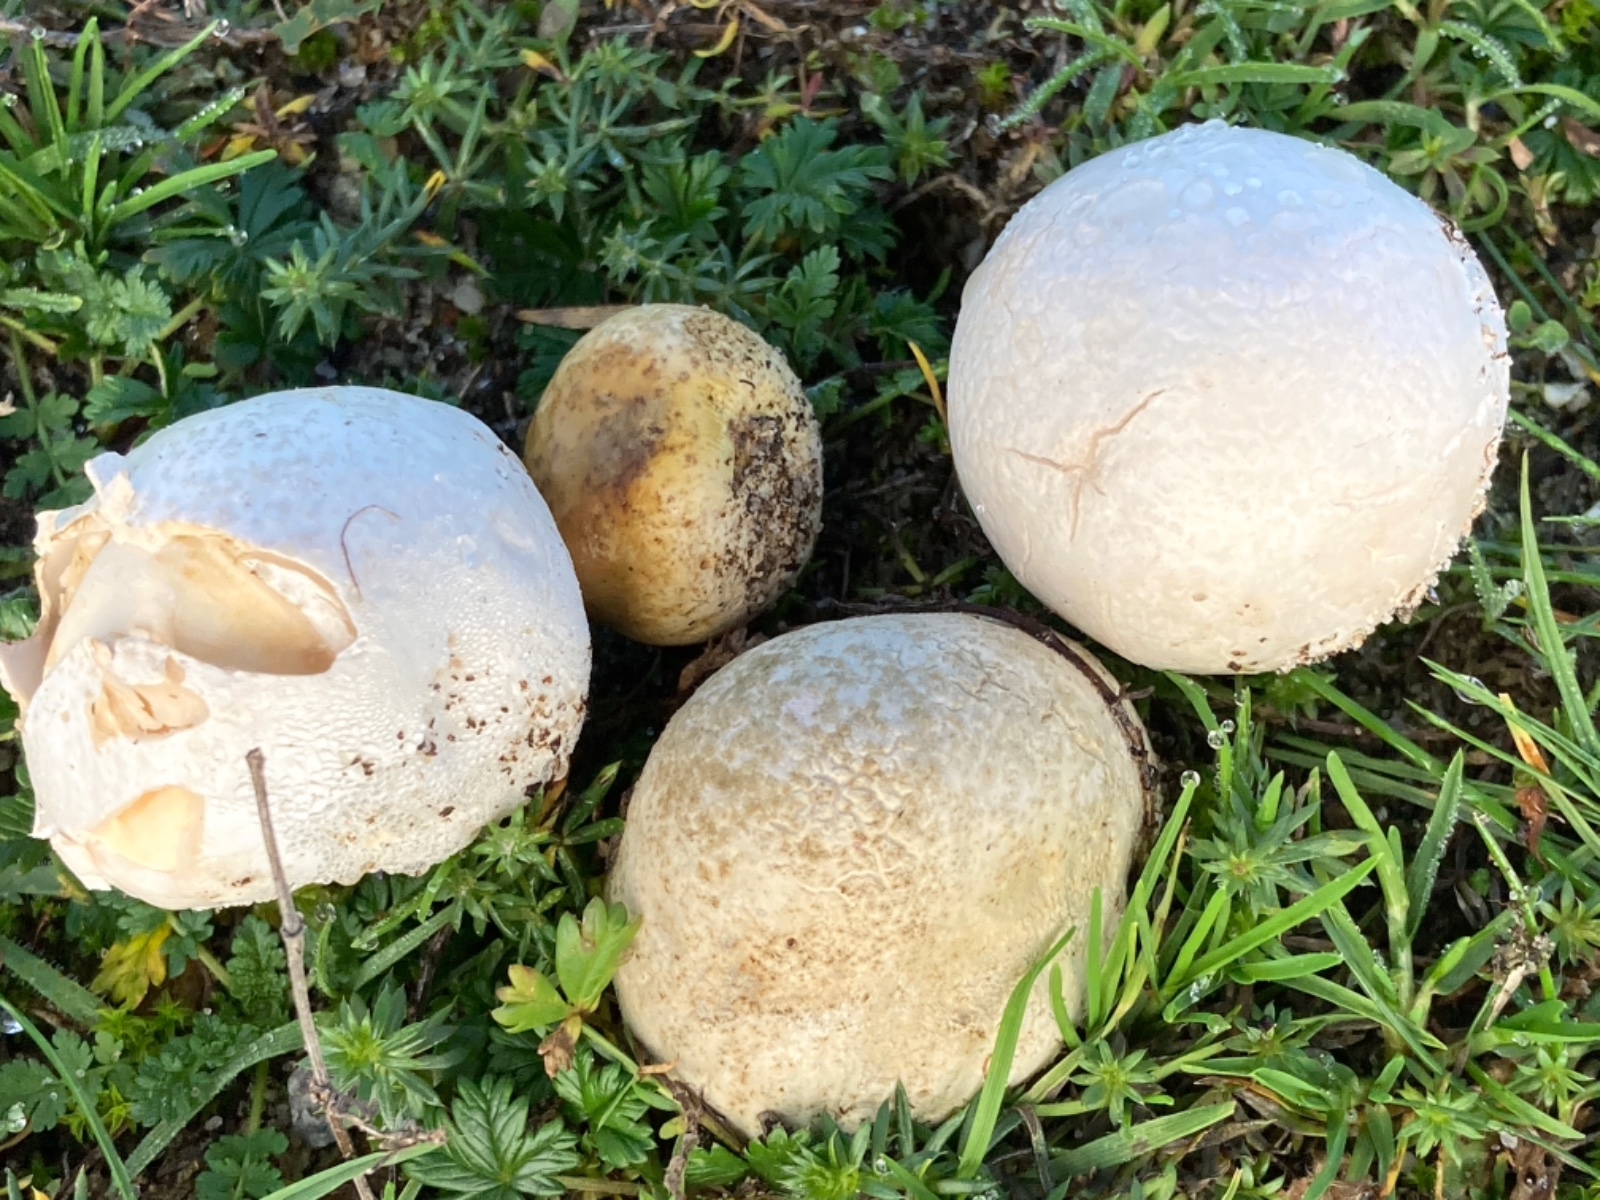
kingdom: Fungi
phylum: Basidiomycota
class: Agaricomycetes
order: Agaricales
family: Lycoperdaceae
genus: Bovista
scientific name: Bovista
